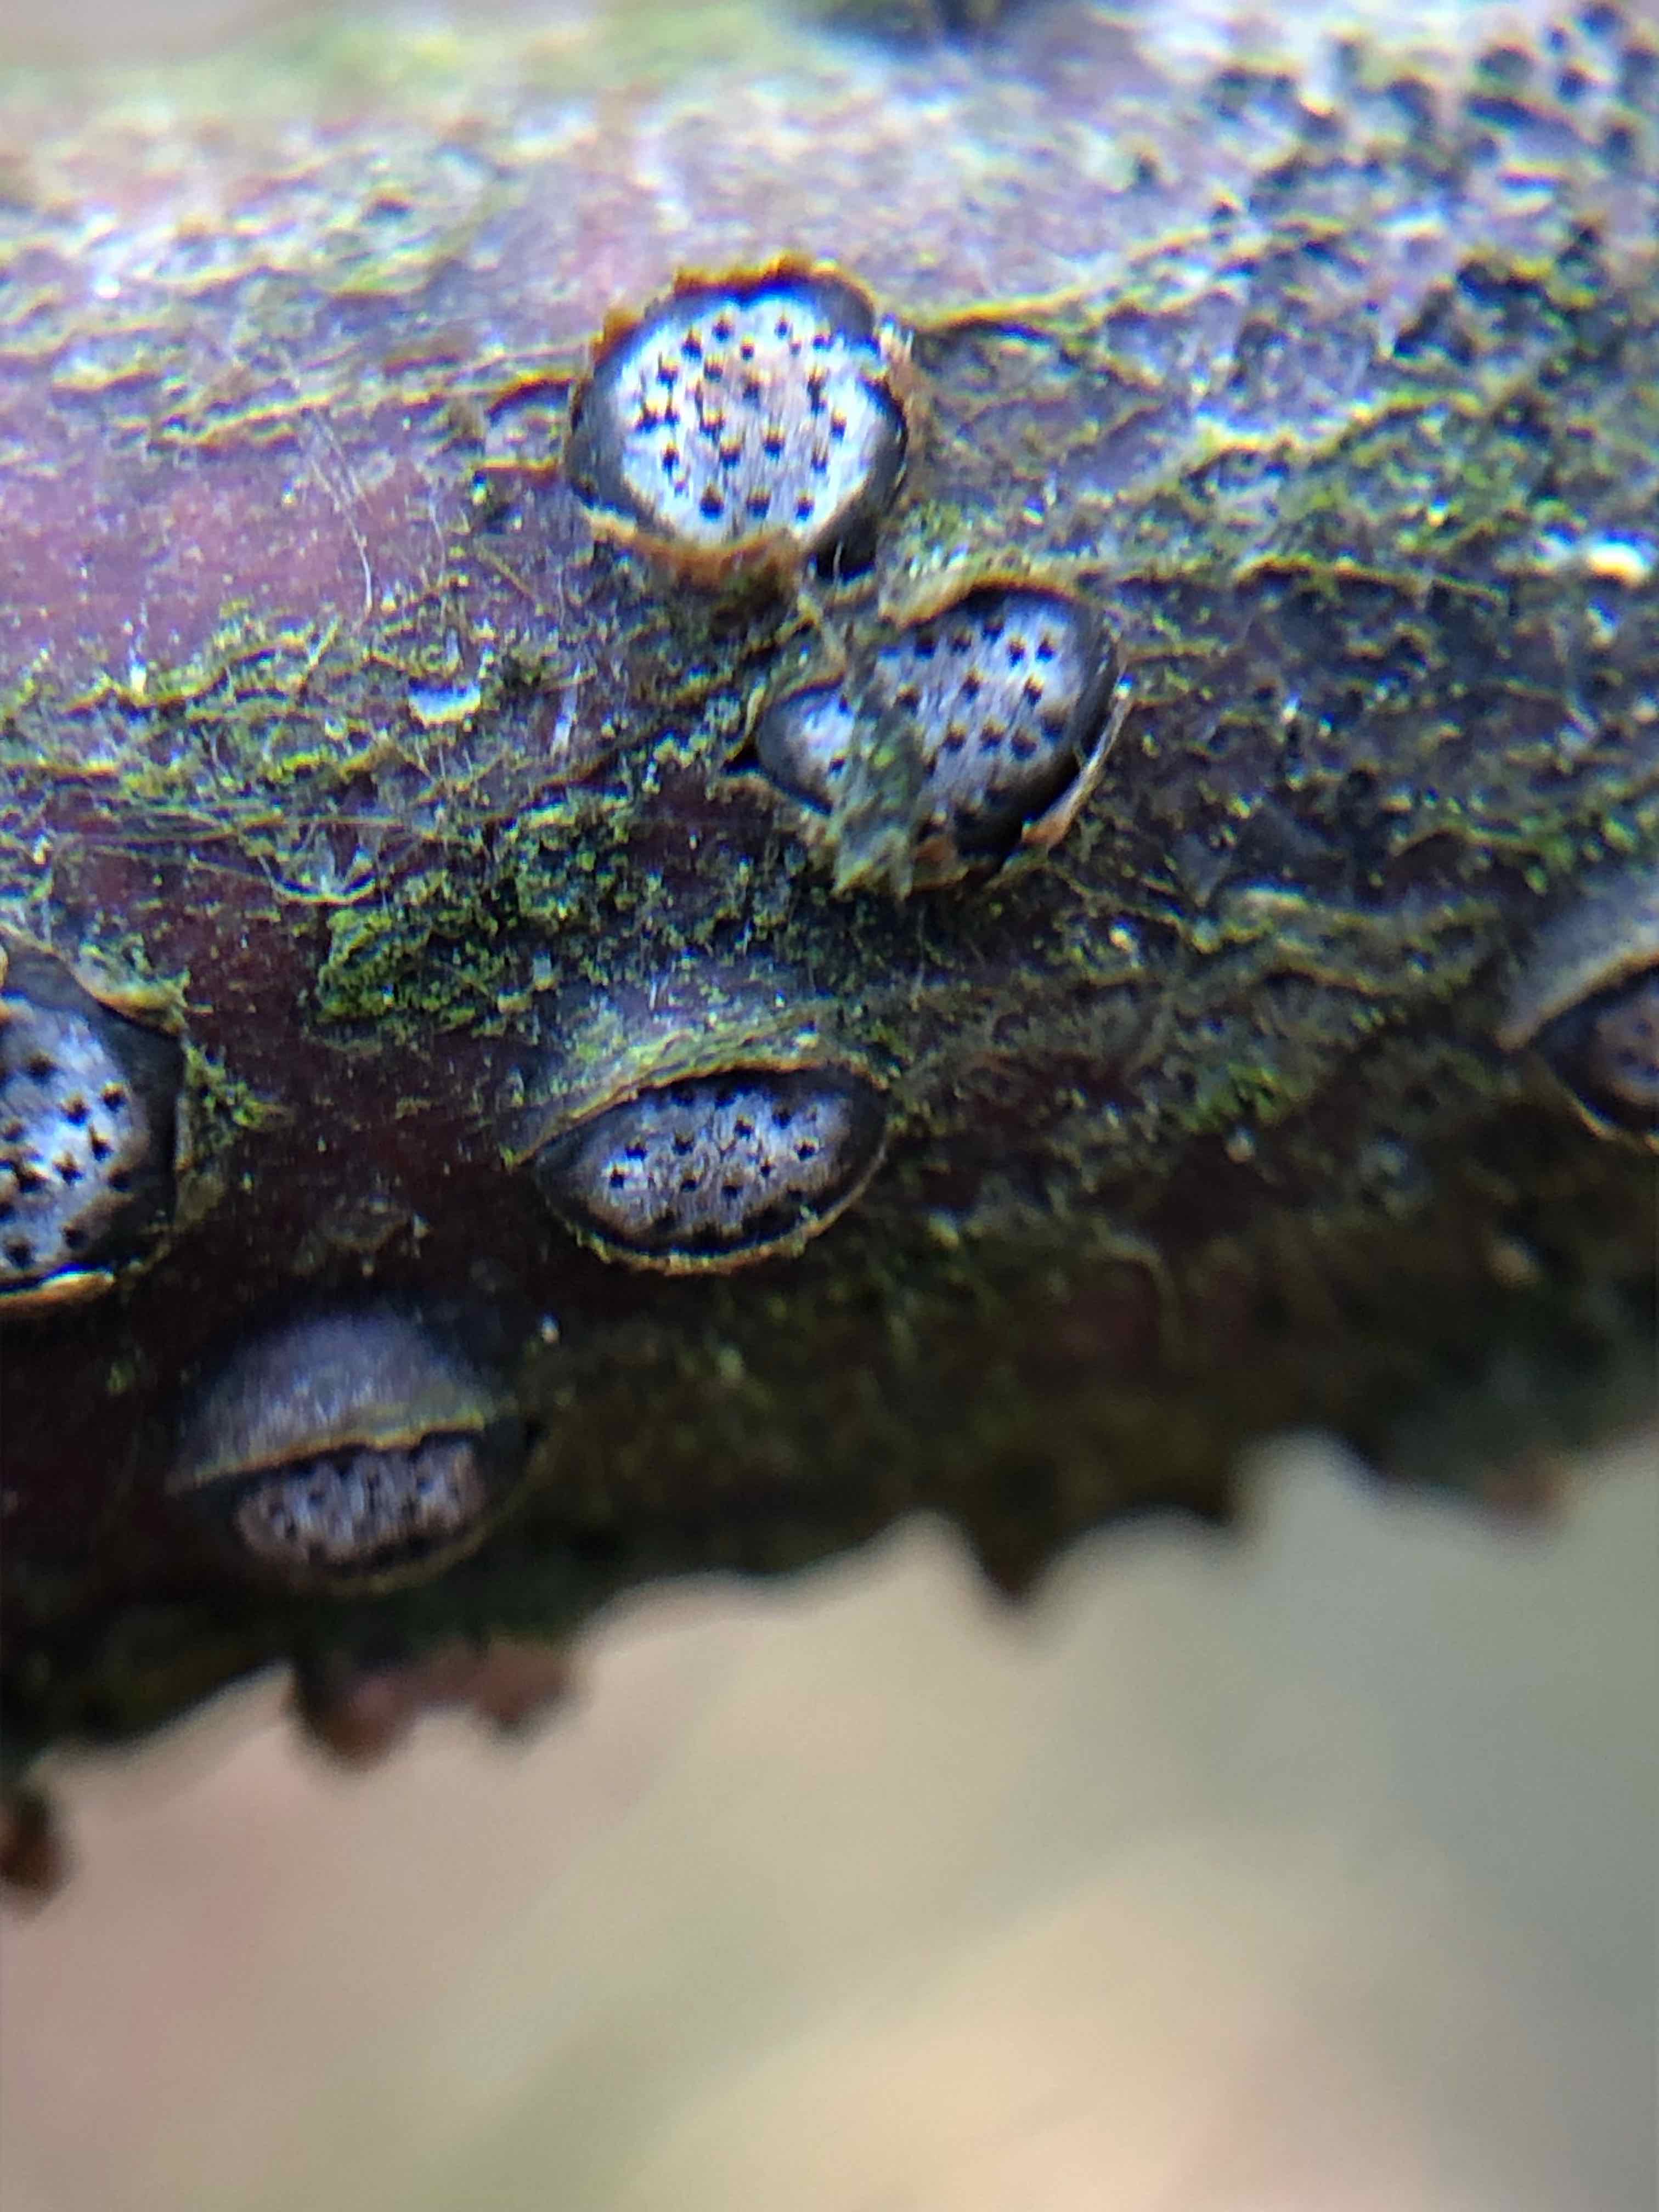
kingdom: Fungi
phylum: Ascomycota
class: Sordariomycetes
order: Xylariales
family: Diatrypaceae
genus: Diatrype
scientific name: Diatrype disciformis
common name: kant-kulskorpe
